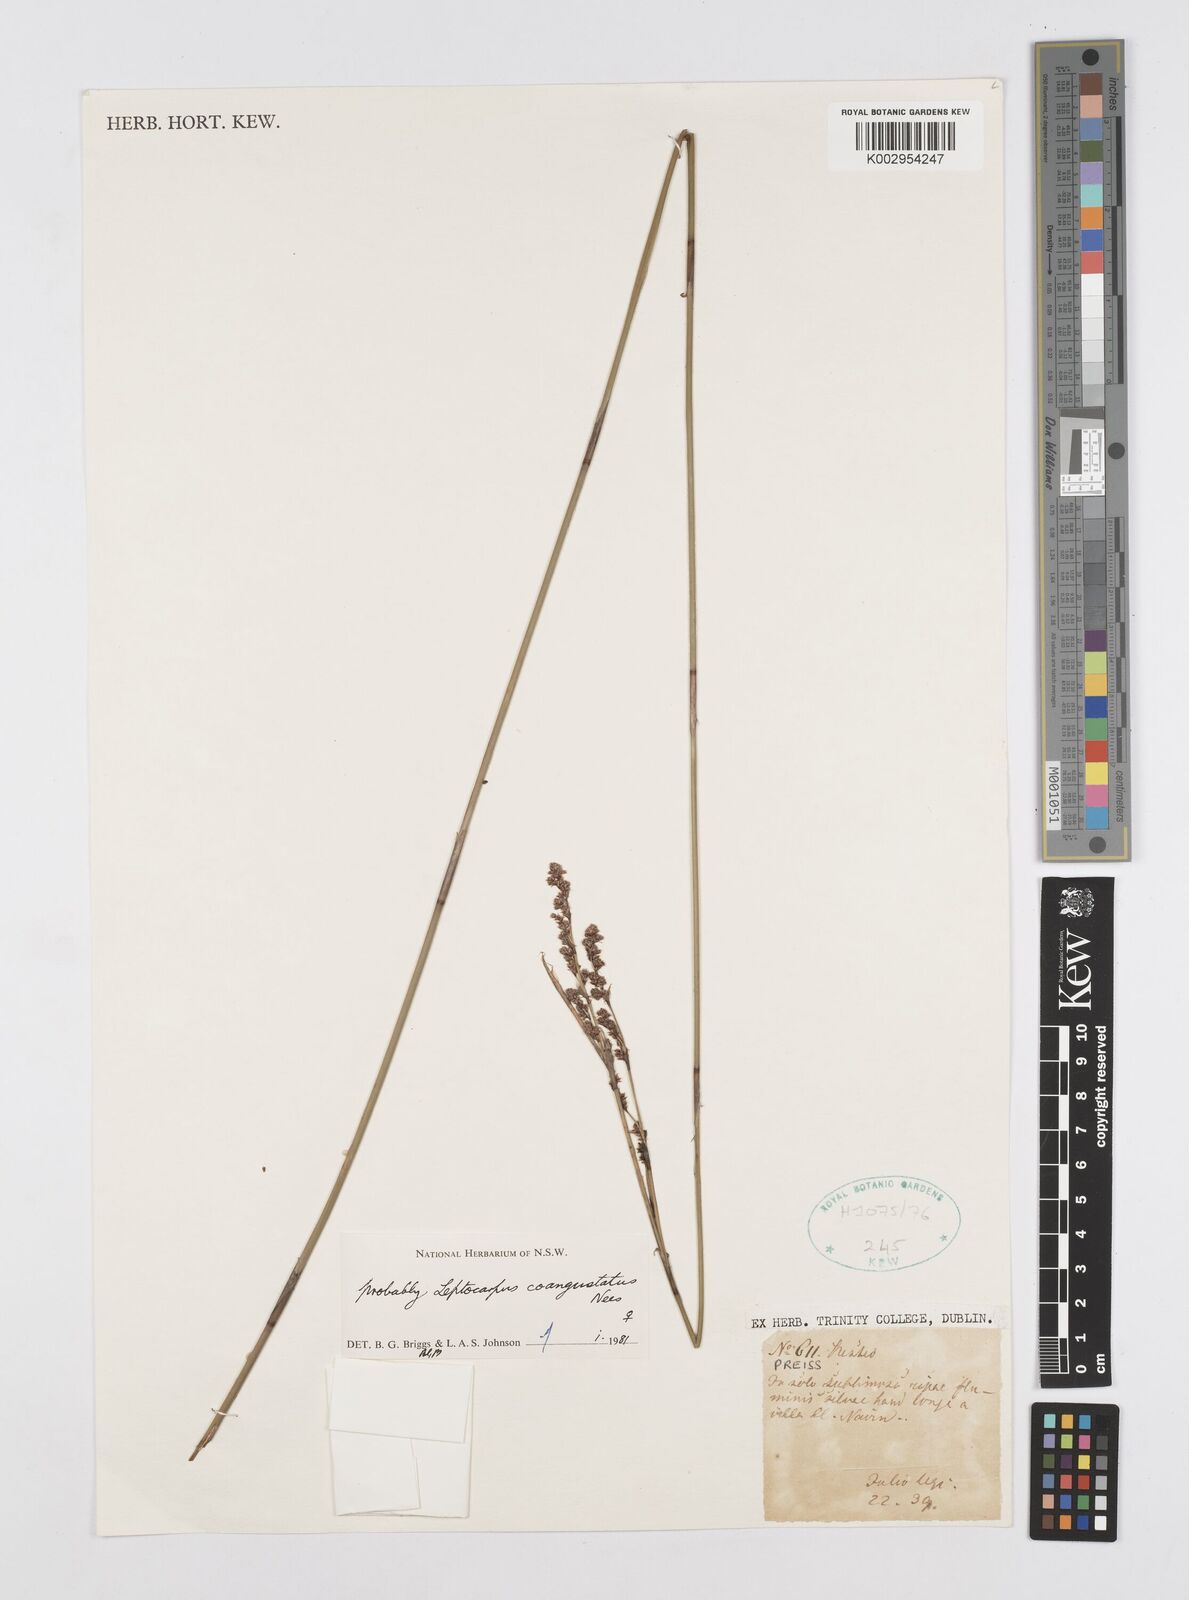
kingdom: Plantae
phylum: Tracheophyta
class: Liliopsida
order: Poales
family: Restionaceae
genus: Leptocarpus
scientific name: Leptocarpus coangustatus
